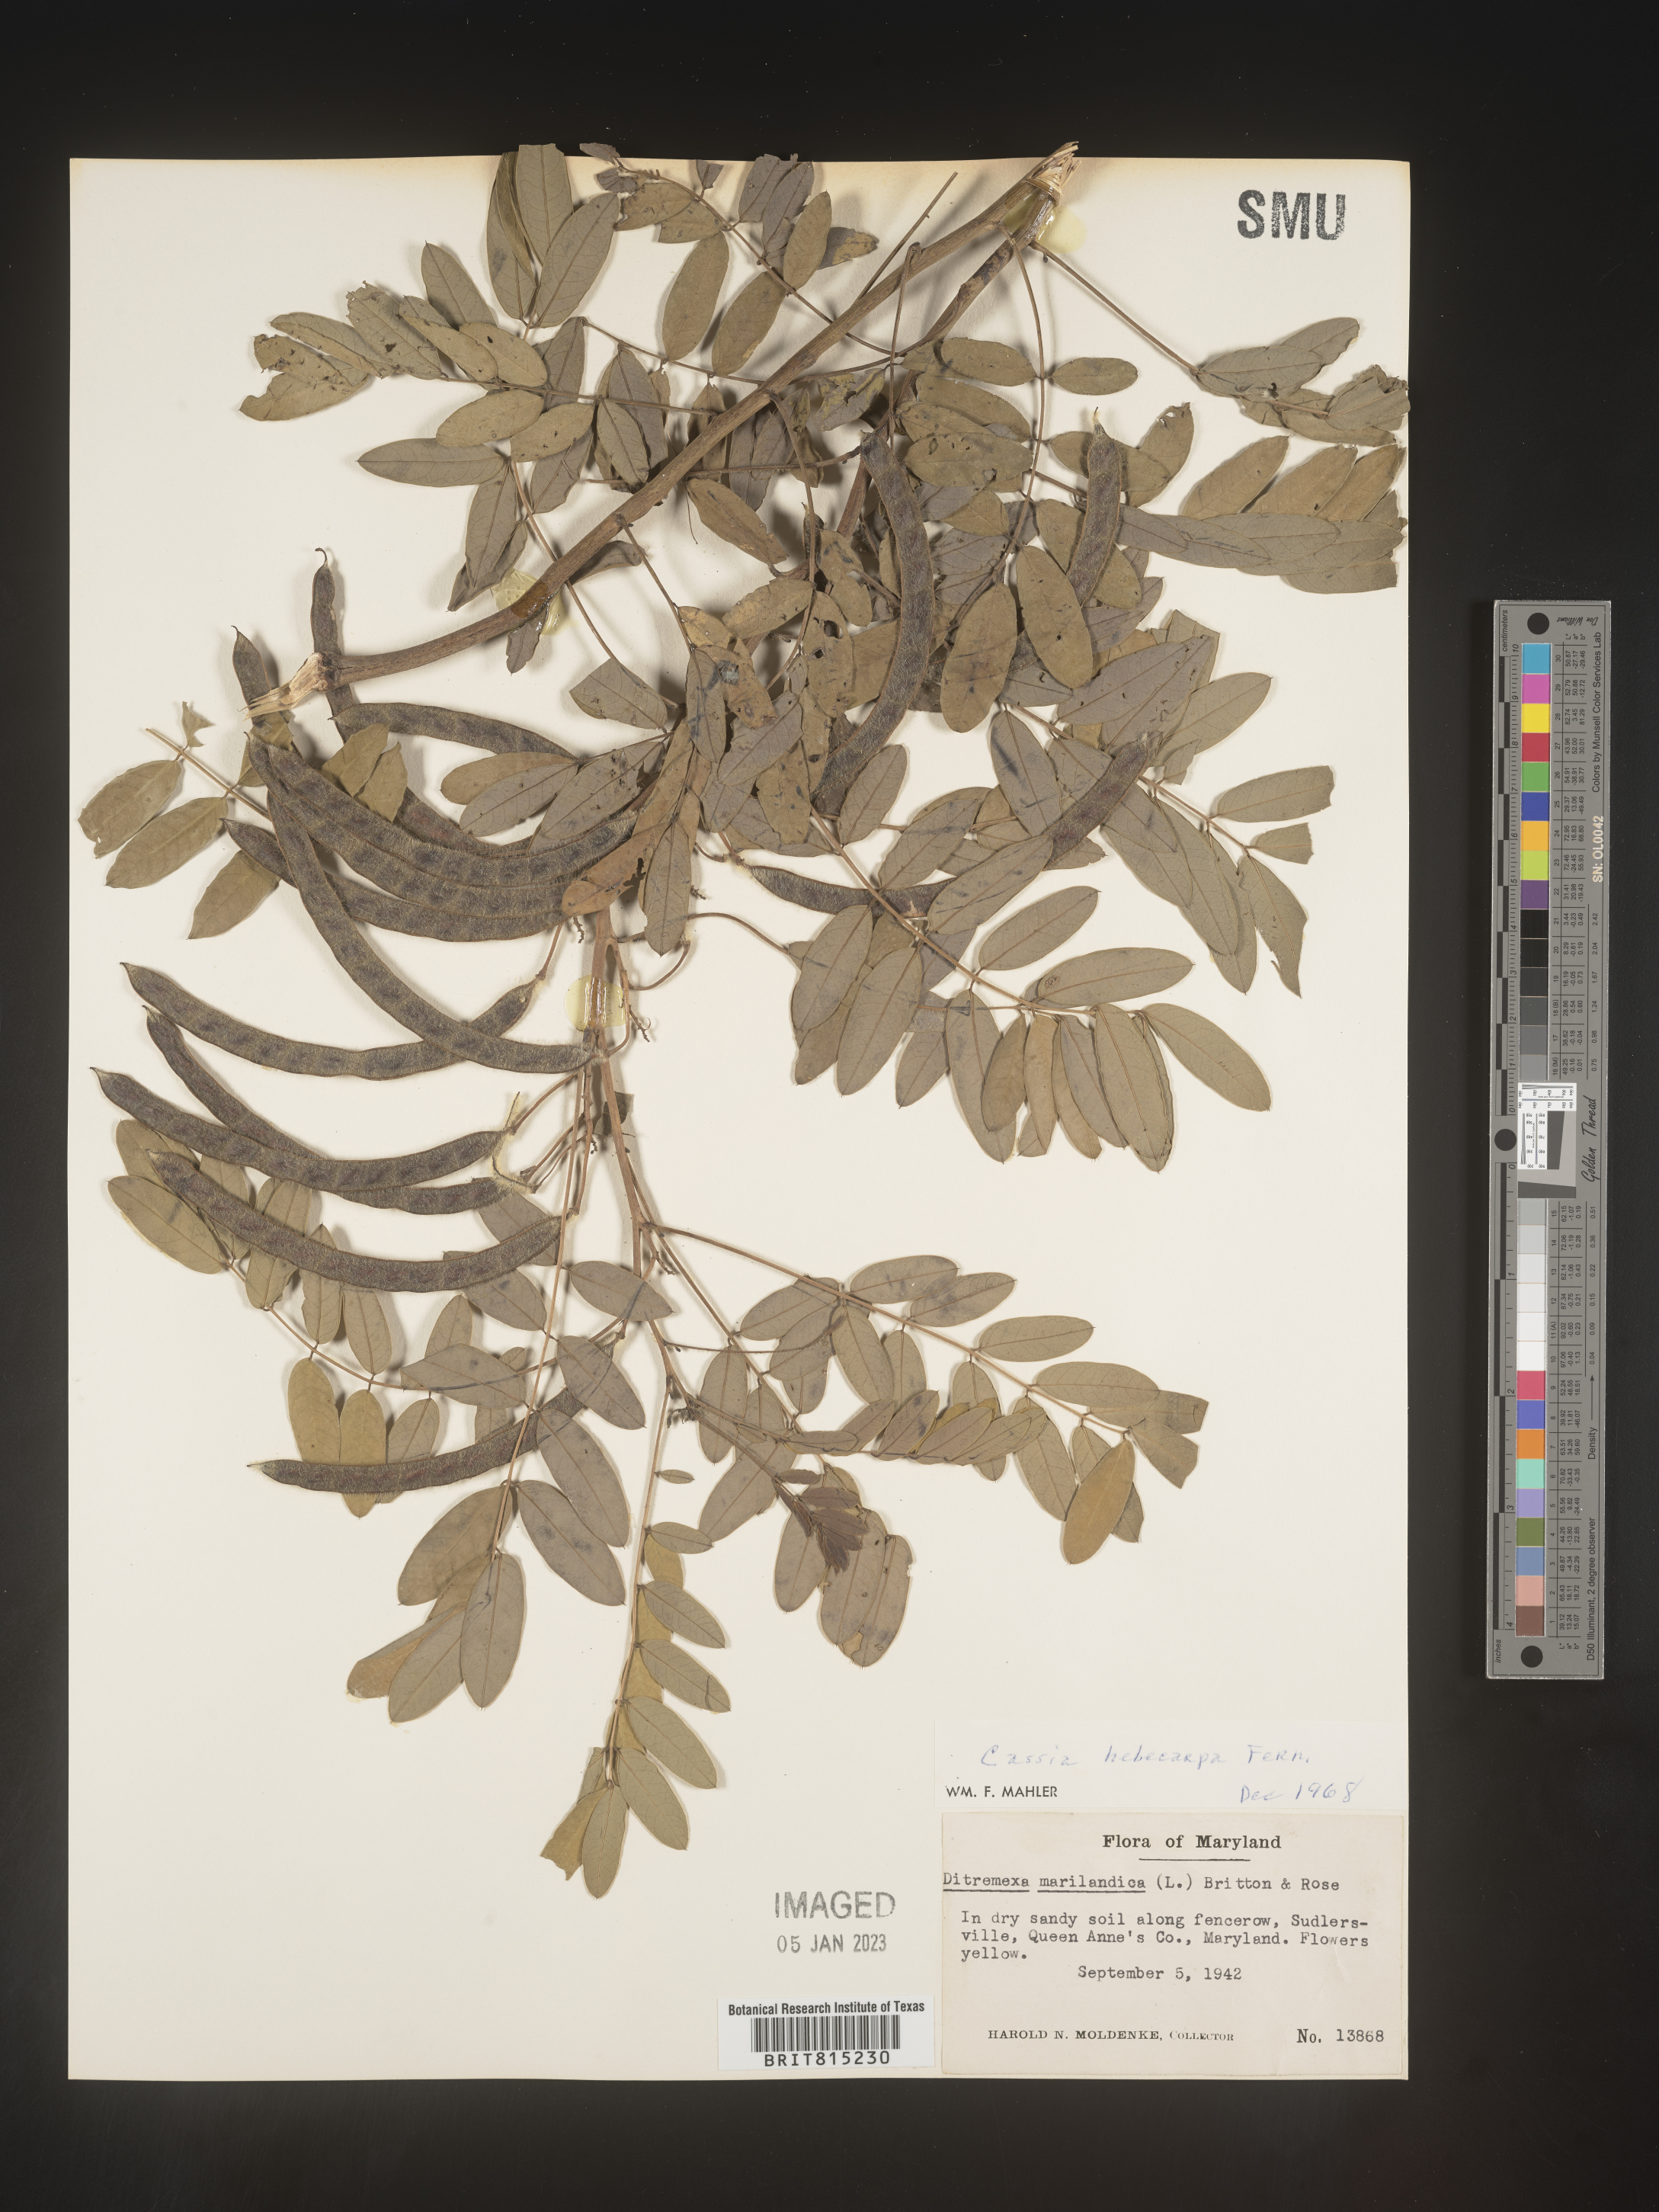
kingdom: Plantae
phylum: Tracheophyta
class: Magnoliopsida
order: Fabales
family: Fabaceae
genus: Senna
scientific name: Senna hebecarpa
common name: Wild senna
